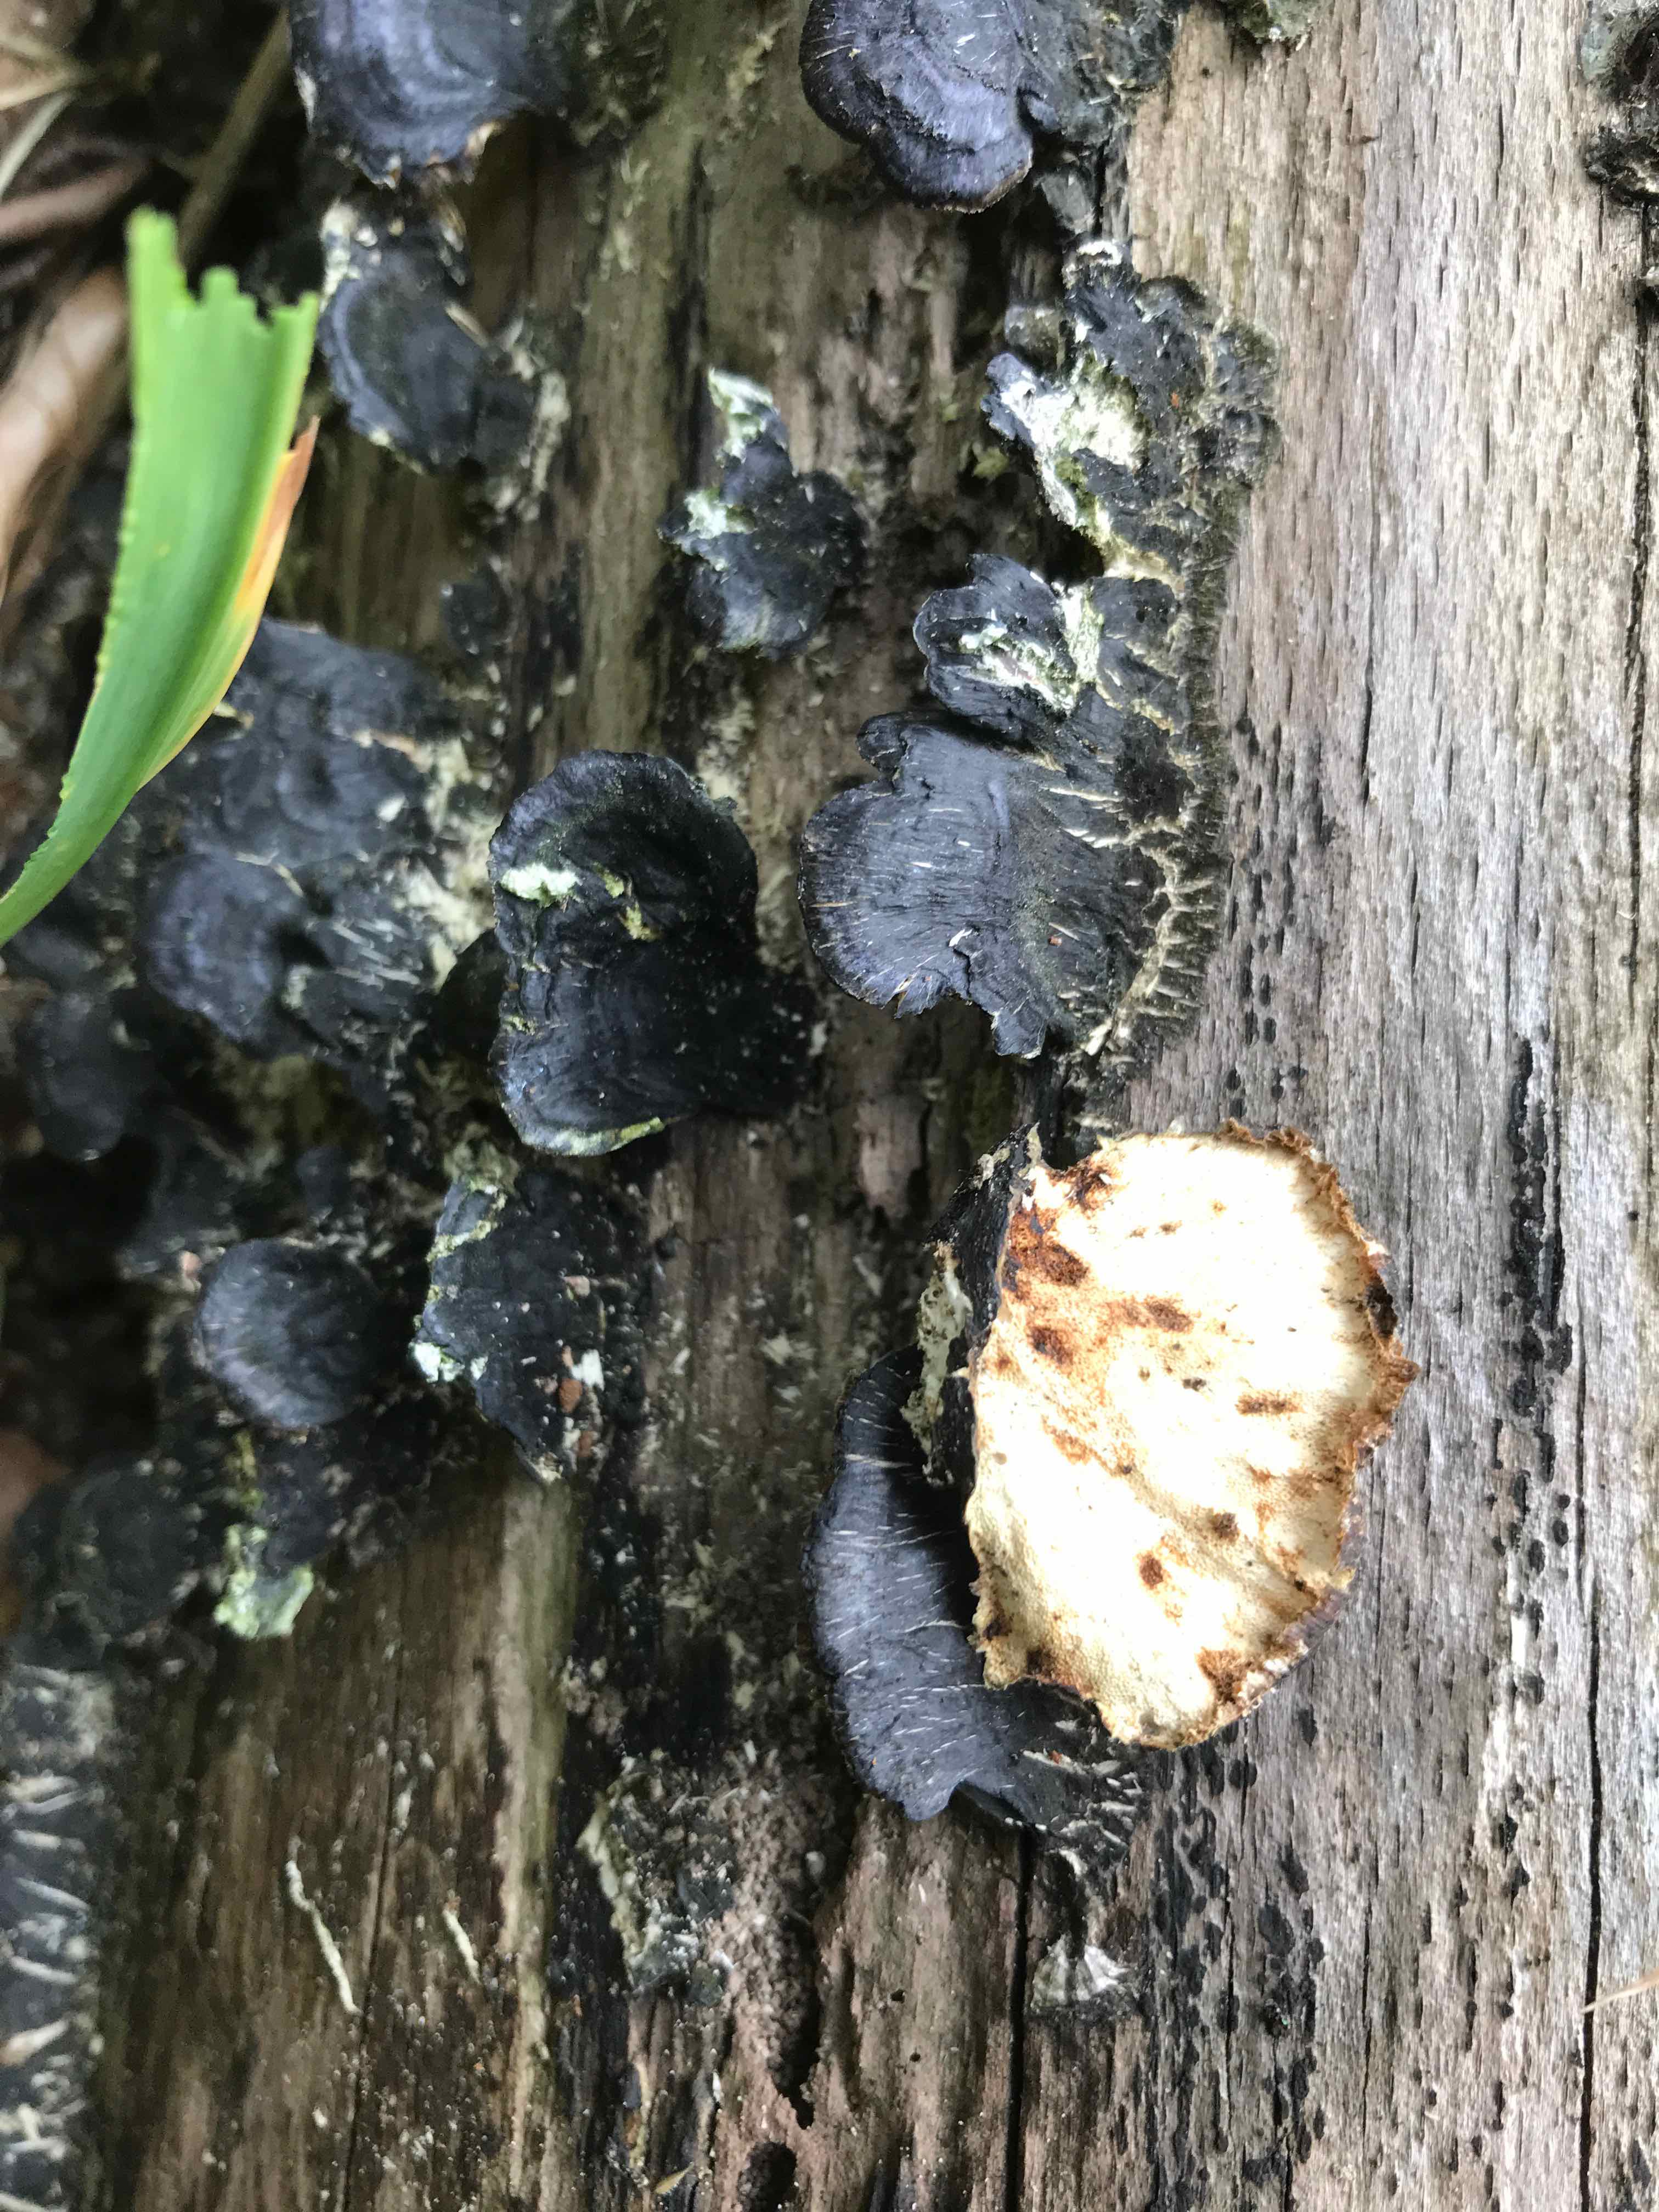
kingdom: Fungi
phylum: Basidiomycota
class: Agaricomycetes
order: Polyporales
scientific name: Polyporales
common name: poresvampordenen
